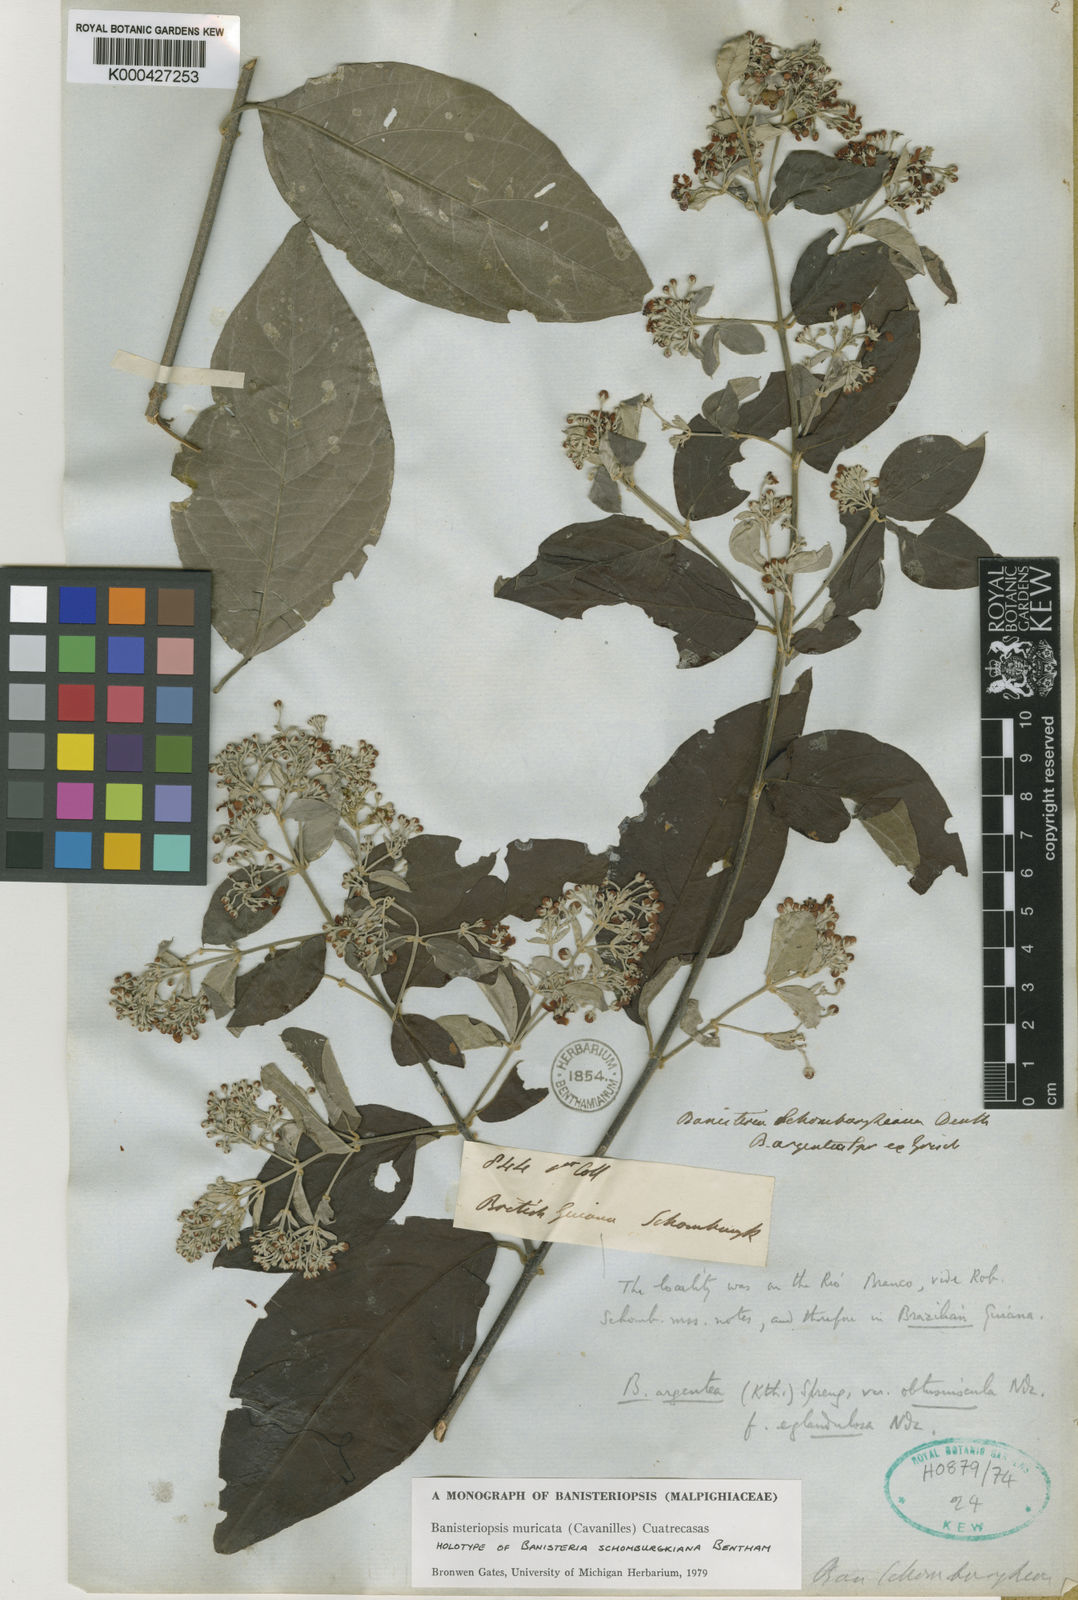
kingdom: Plantae
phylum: Tracheophyta
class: Magnoliopsida
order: Malpighiales
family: Malpighiaceae
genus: Banisteriopsis
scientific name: Banisteriopsis muricata
